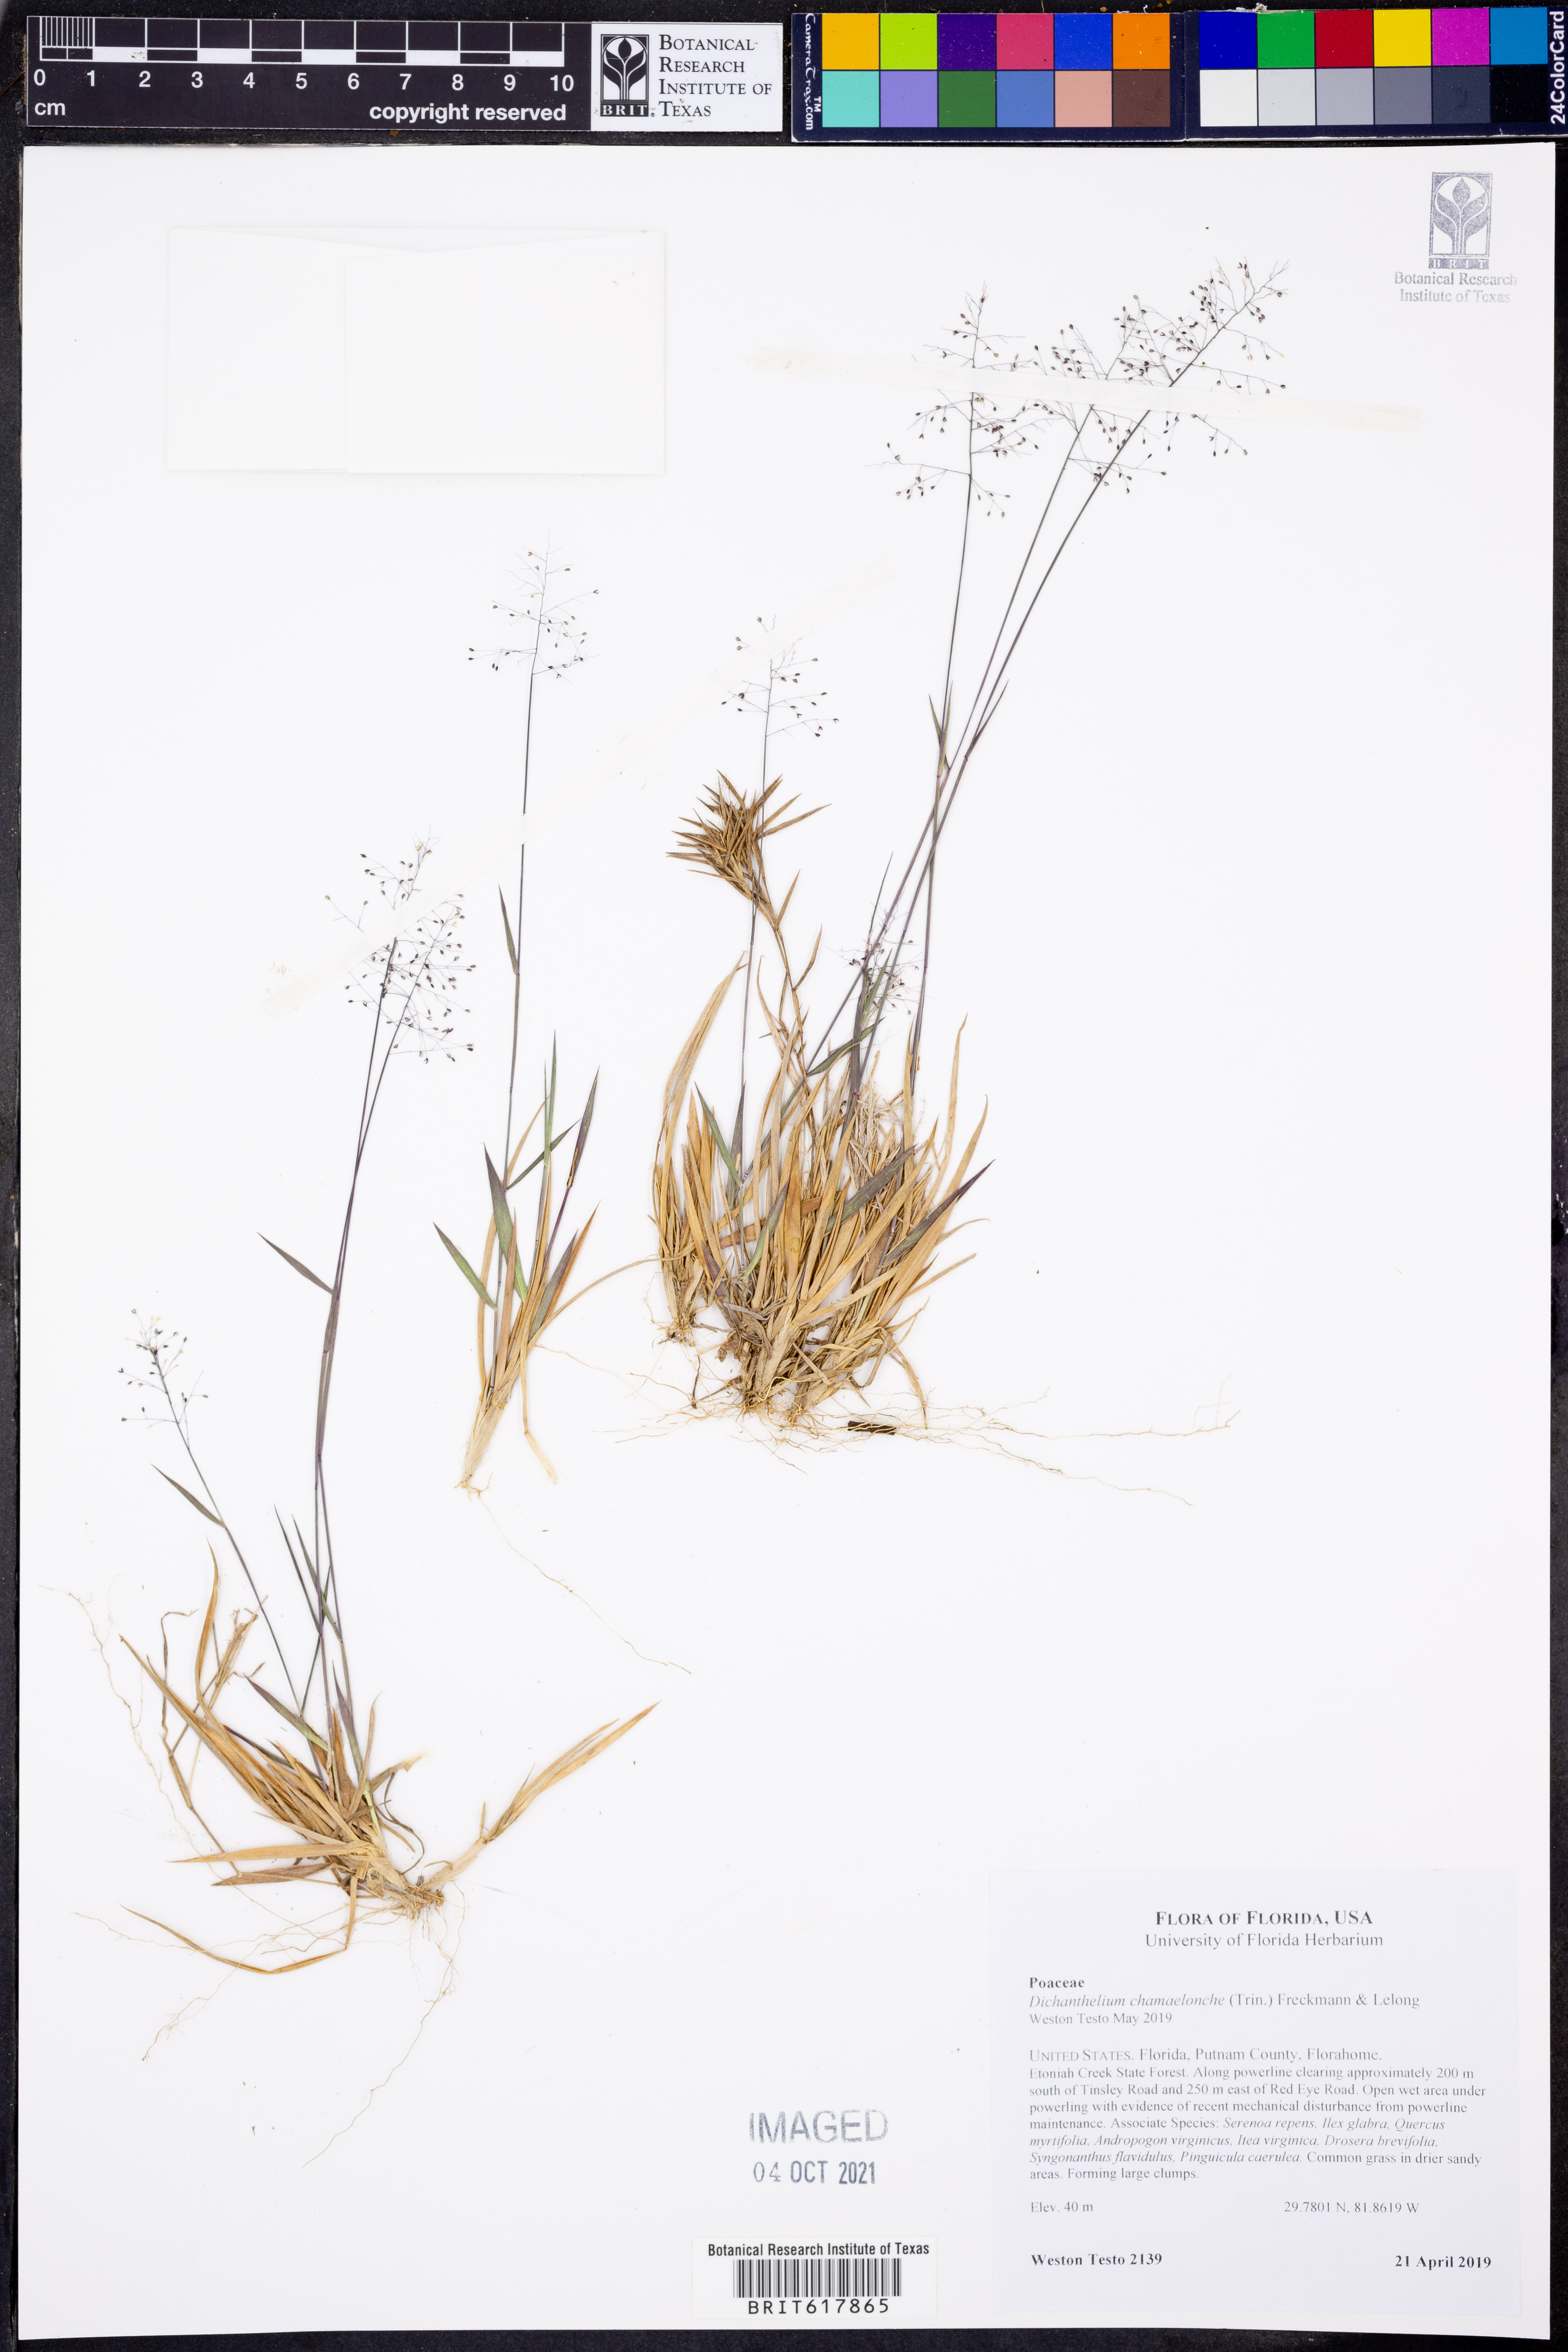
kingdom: Plantae
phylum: Tracheophyta
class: Liliopsida
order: Poales
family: Poaceae
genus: Dichanthelium
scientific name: Dichanthelium chamaelonche
